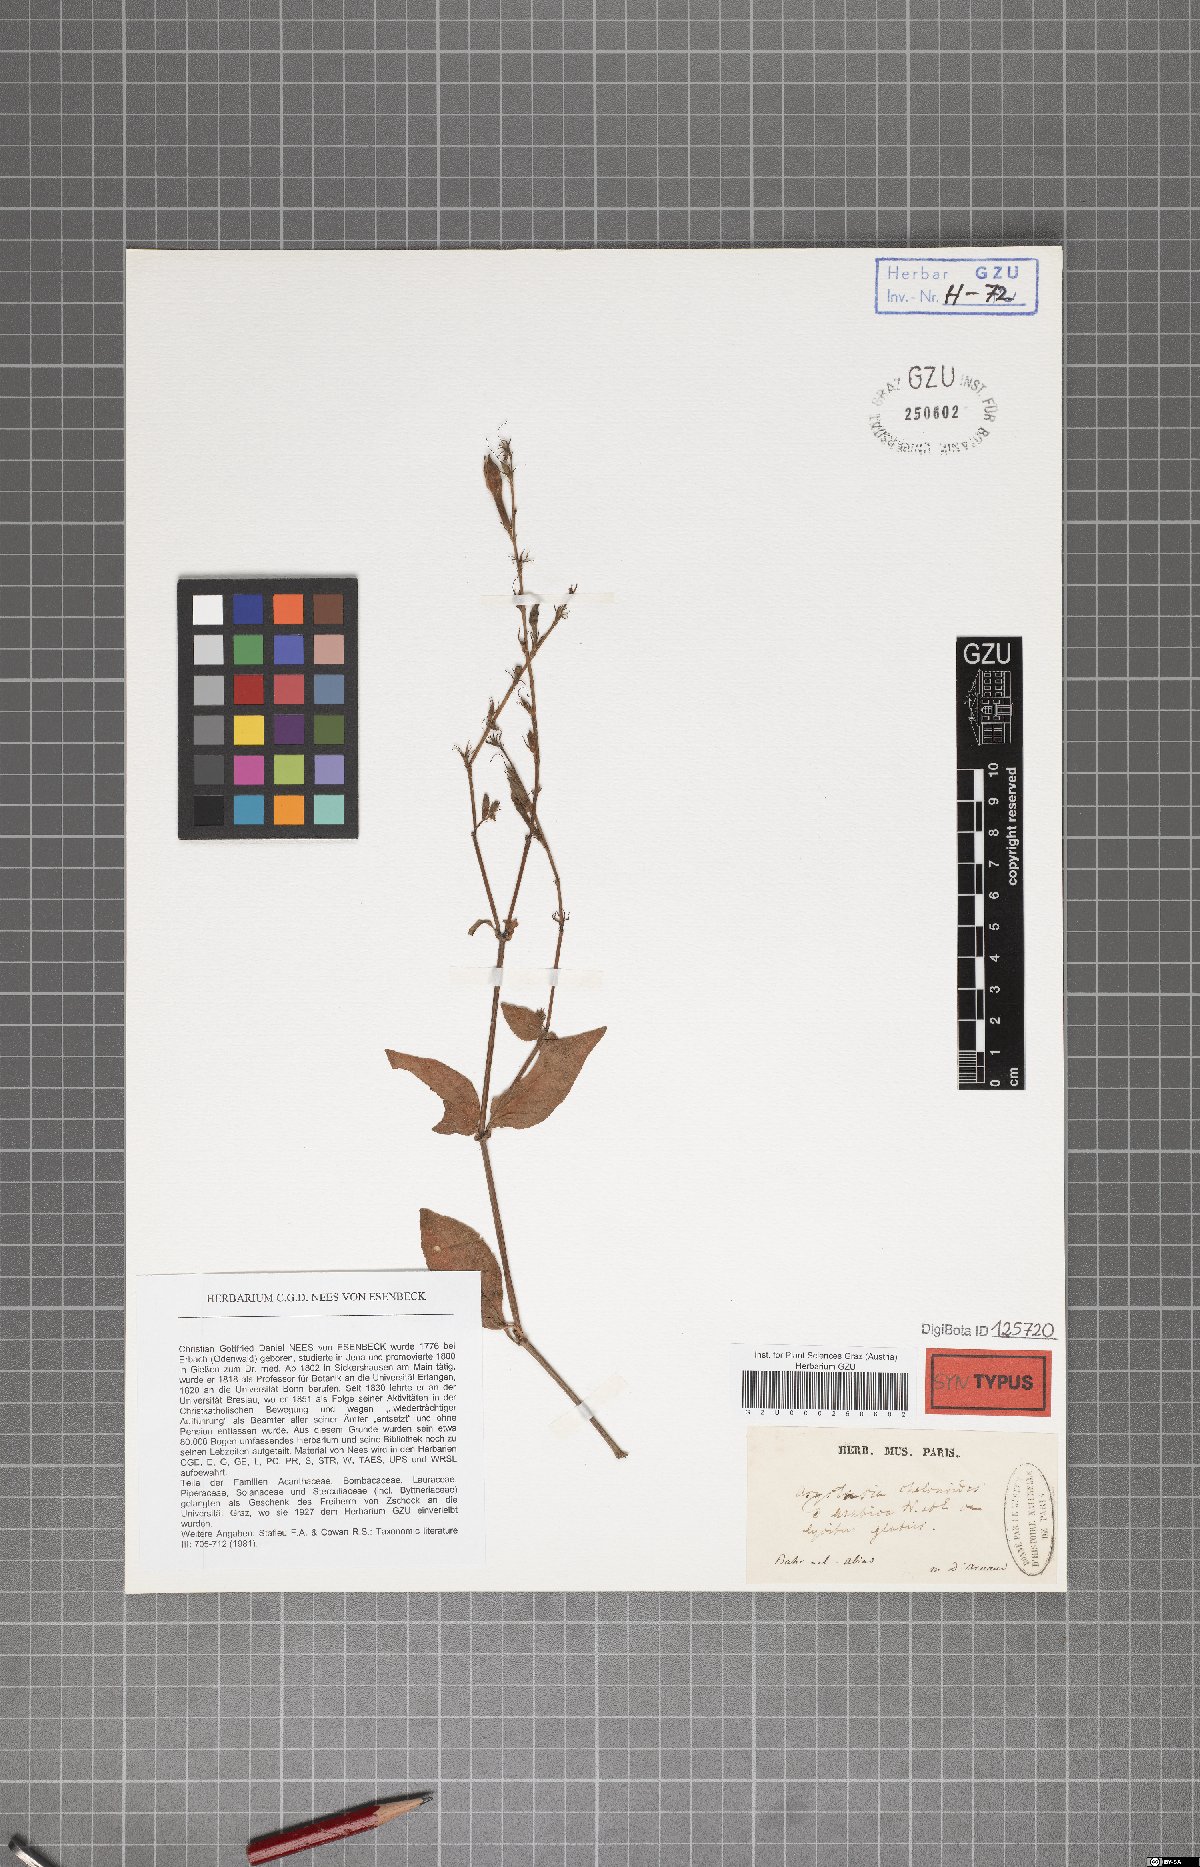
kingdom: Plantae
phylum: Tracheophyta
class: Magnoliopsida
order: Lamiales
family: Acanthaceae
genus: Asystasia
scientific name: Asystasia intrusa
